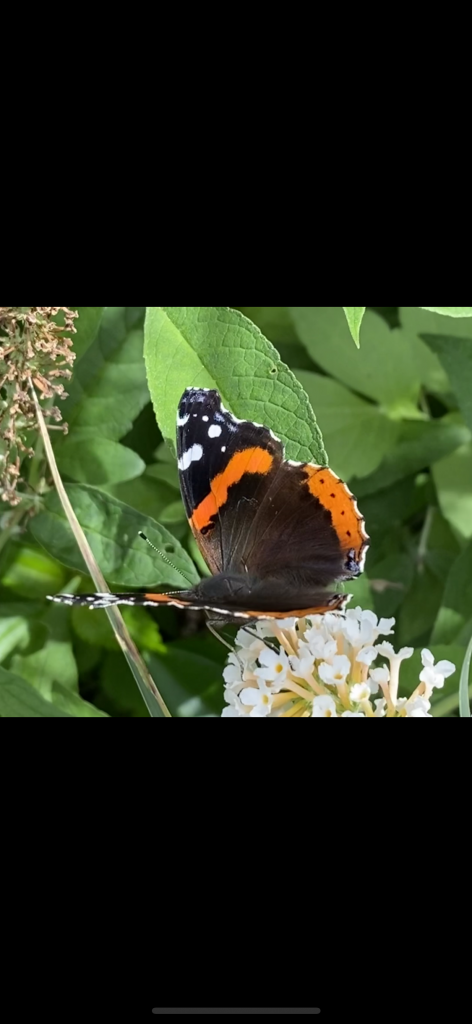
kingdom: Animalia
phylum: Arthropoda
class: Insecta
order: Lepidoptera
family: Nymphalidae
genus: Vanessa
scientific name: Vanessa atalanta
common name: Red Admiral
